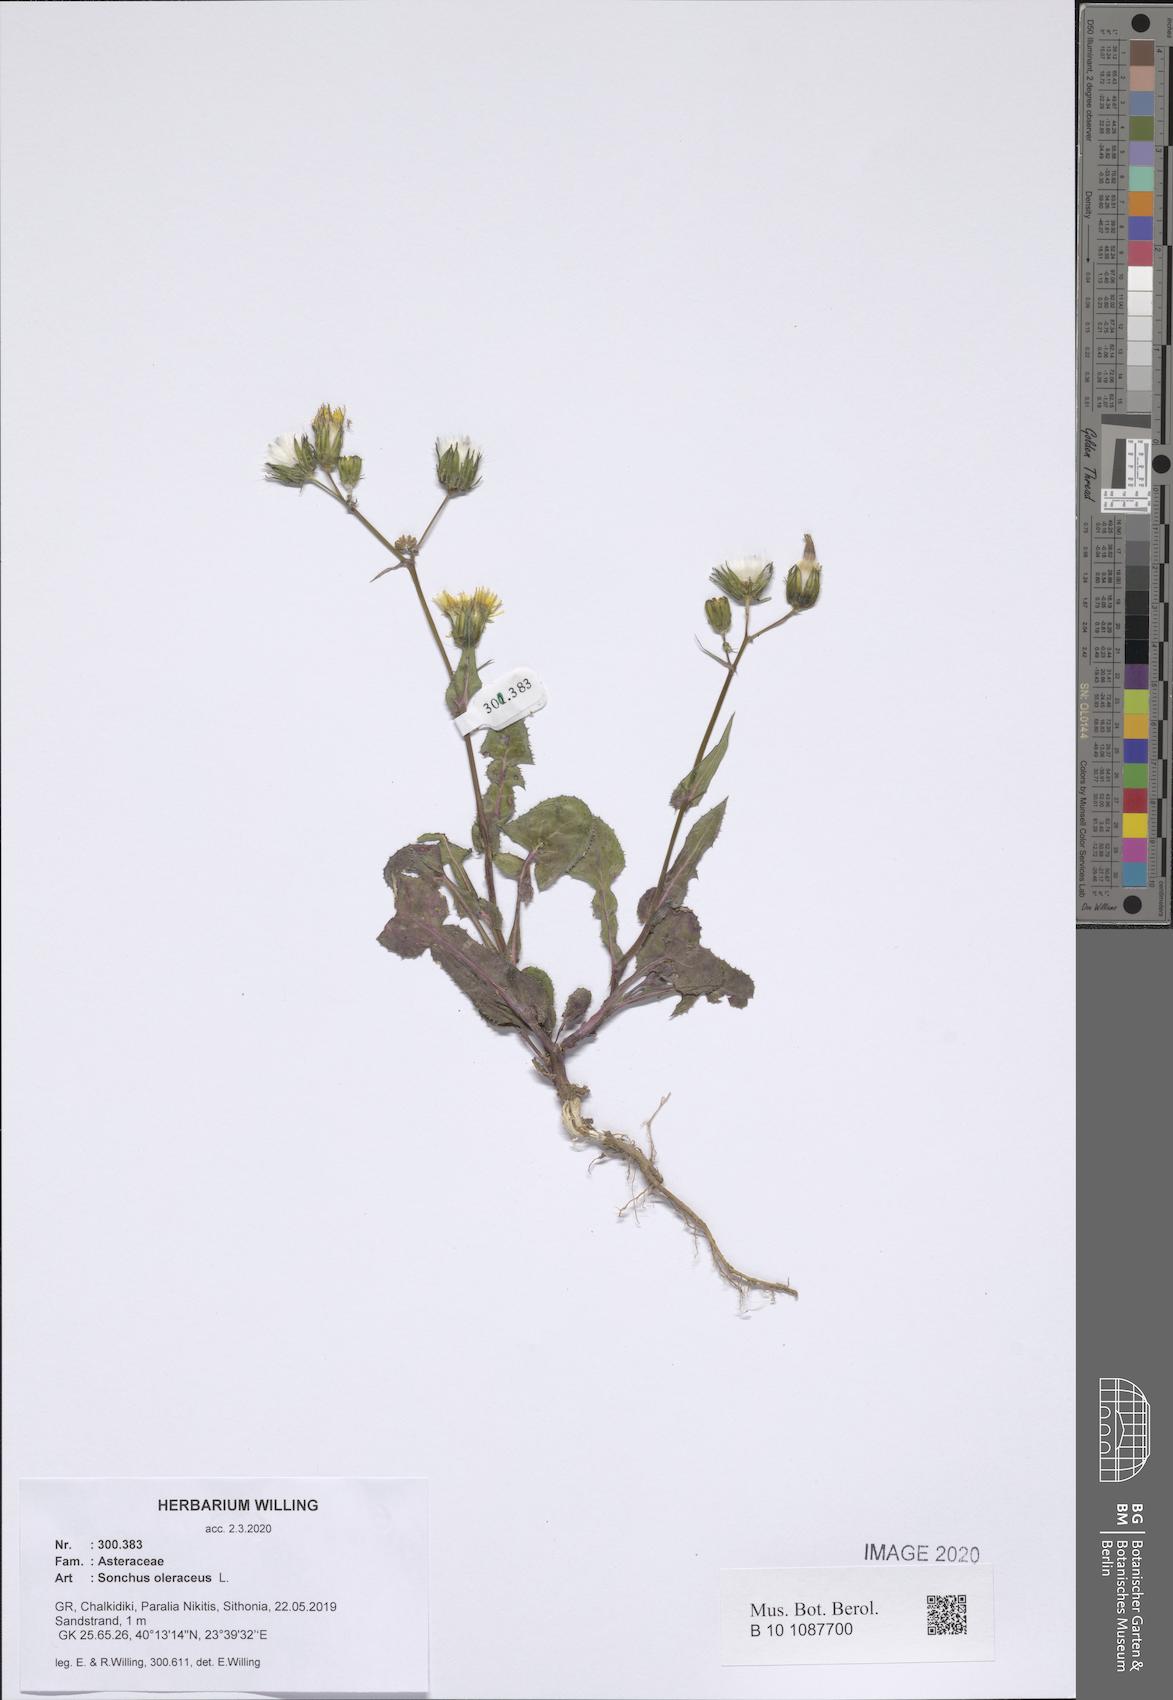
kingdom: Plantae
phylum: Tracheophyta
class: Magnoliopsida
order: Asterales
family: Asteraceae
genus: Sonchus
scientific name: Sonchus oleraceus
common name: Common sowthistle
